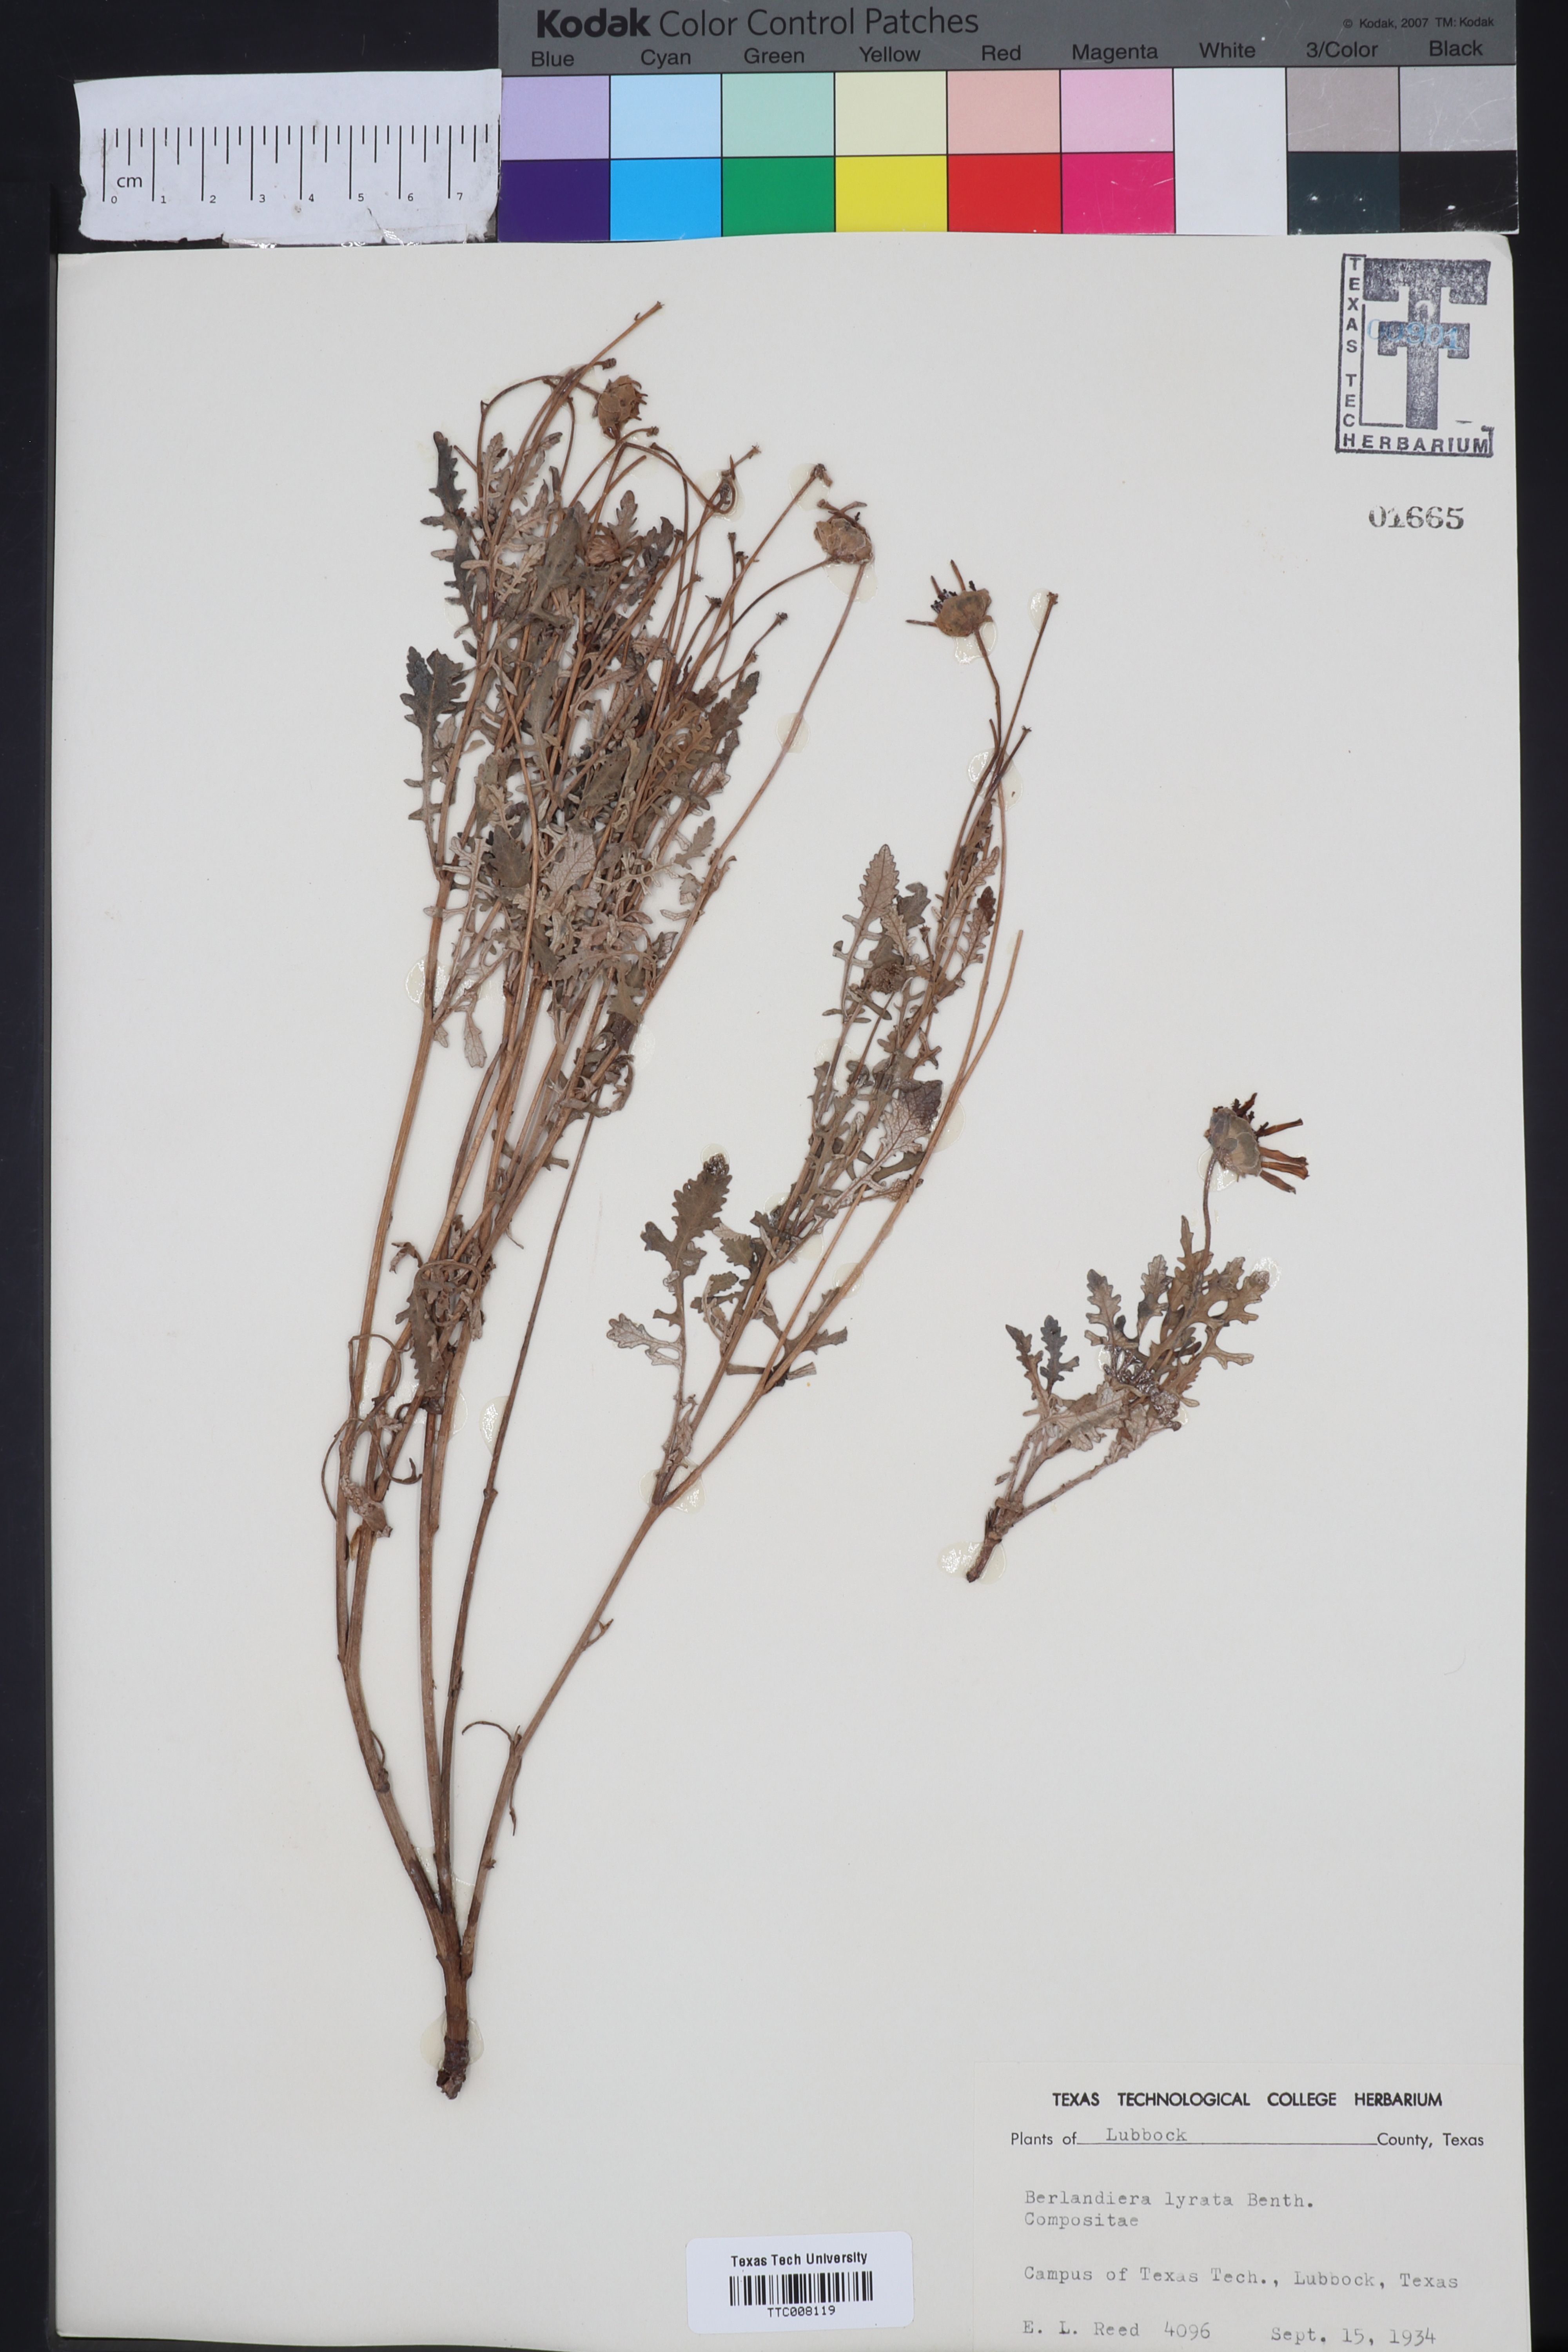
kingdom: Plantae
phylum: Tracheophyta
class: Magnoliopsida
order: Asterales
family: Asteraceae
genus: Berlandiera
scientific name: Berlandiera lyrata
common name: Chocolate-flower
